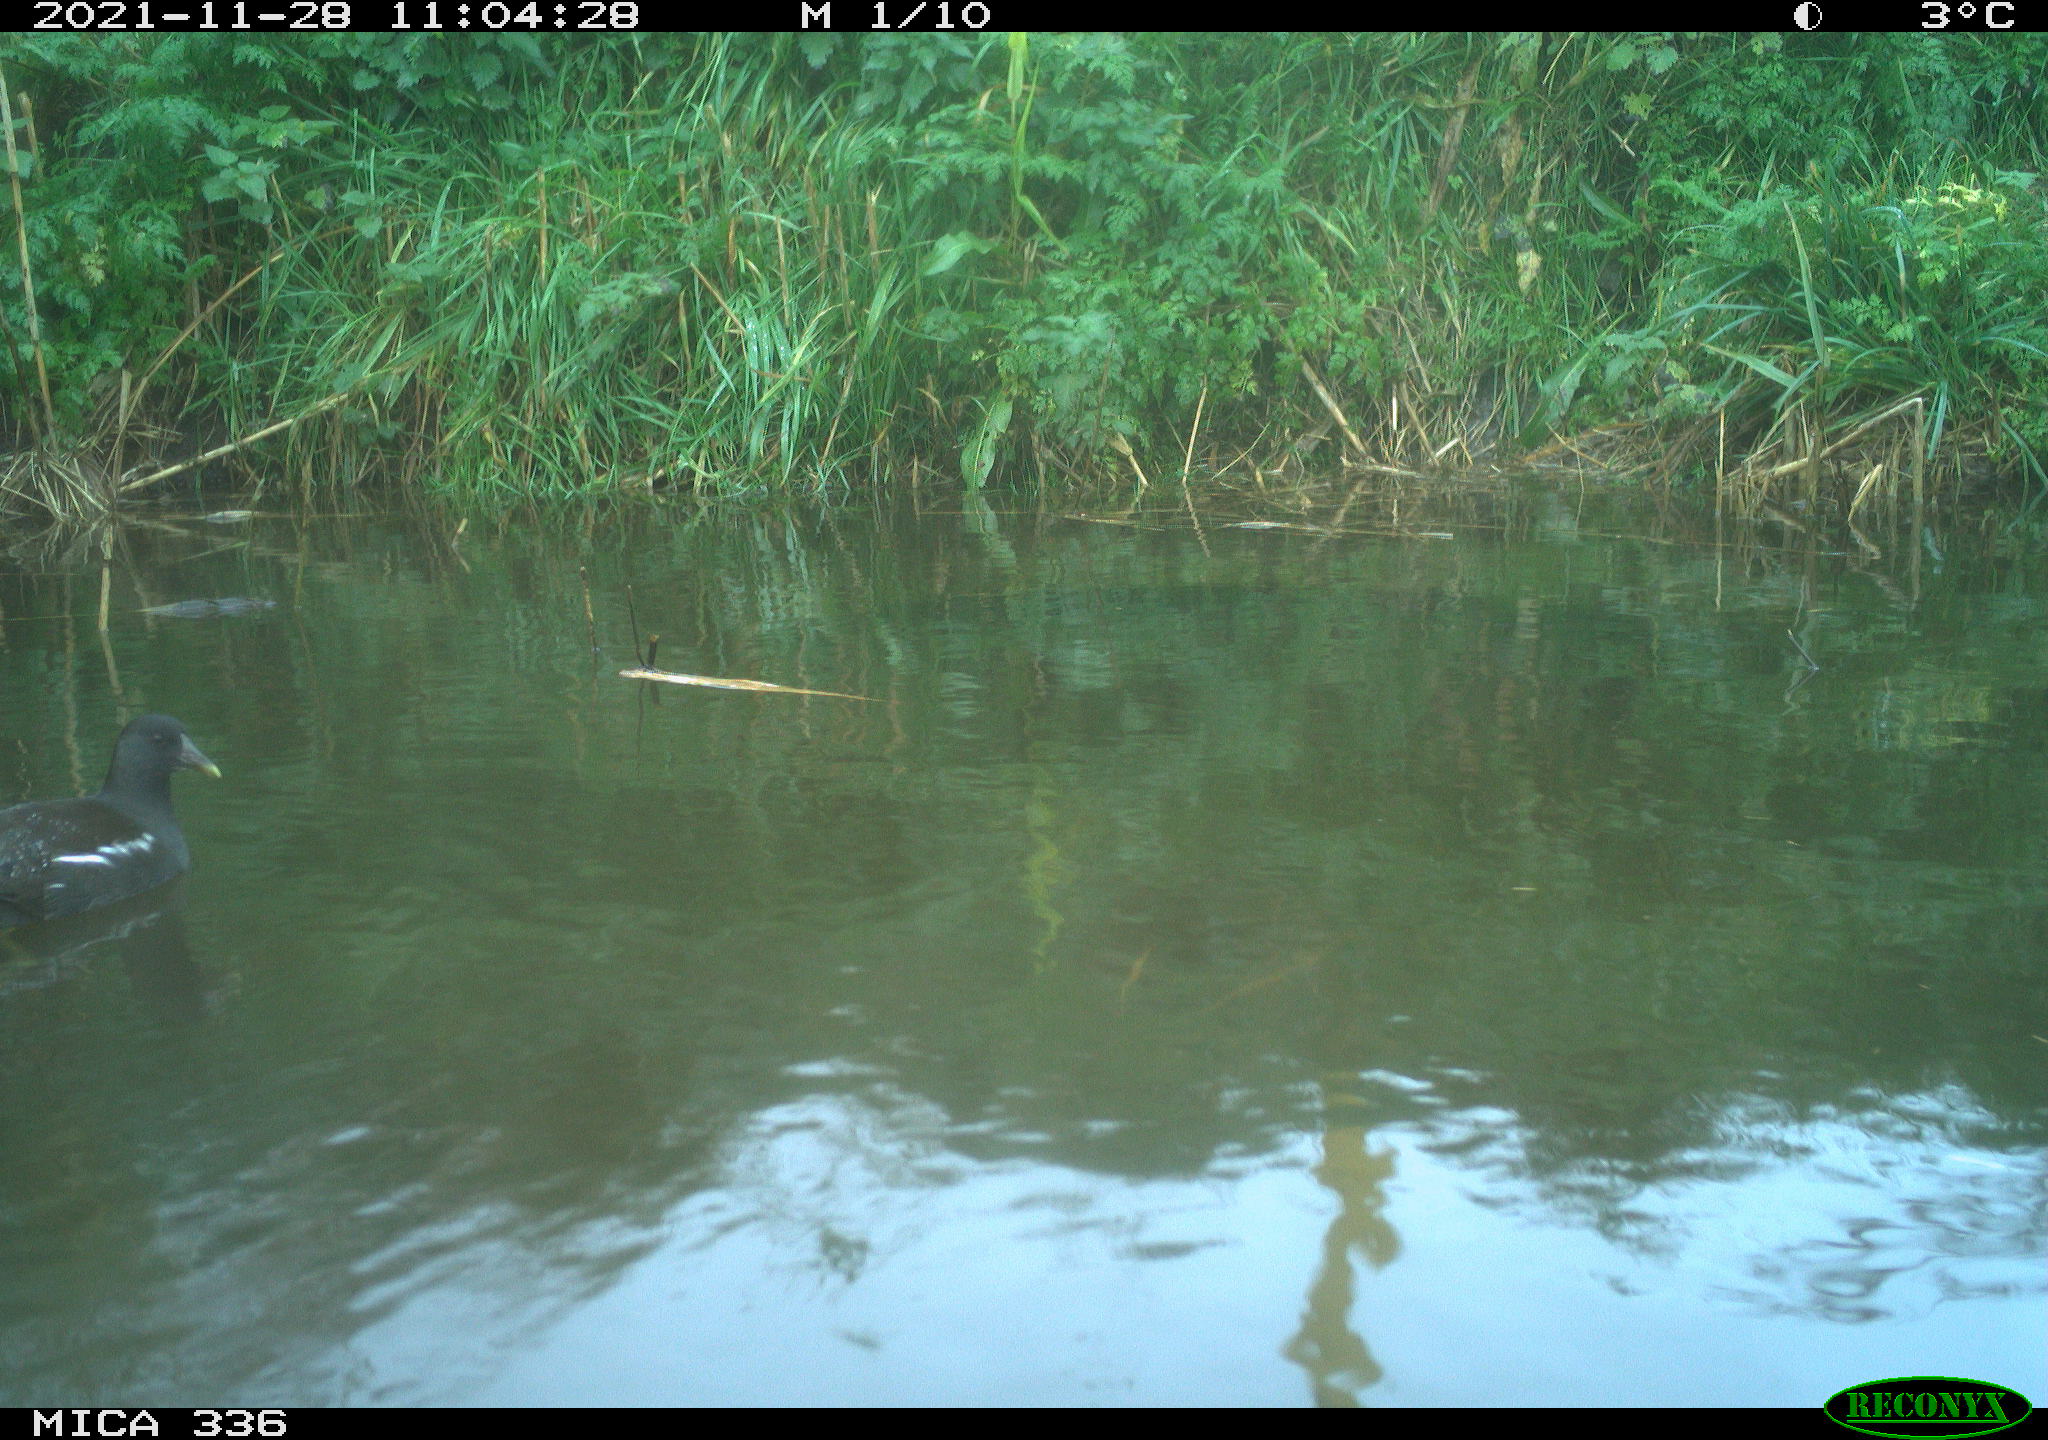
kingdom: Animalia
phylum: Chordata
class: Aves
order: Gruiformes
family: Rallidae
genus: Gallinula
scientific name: Gallinula chloropus
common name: Common moorhen
